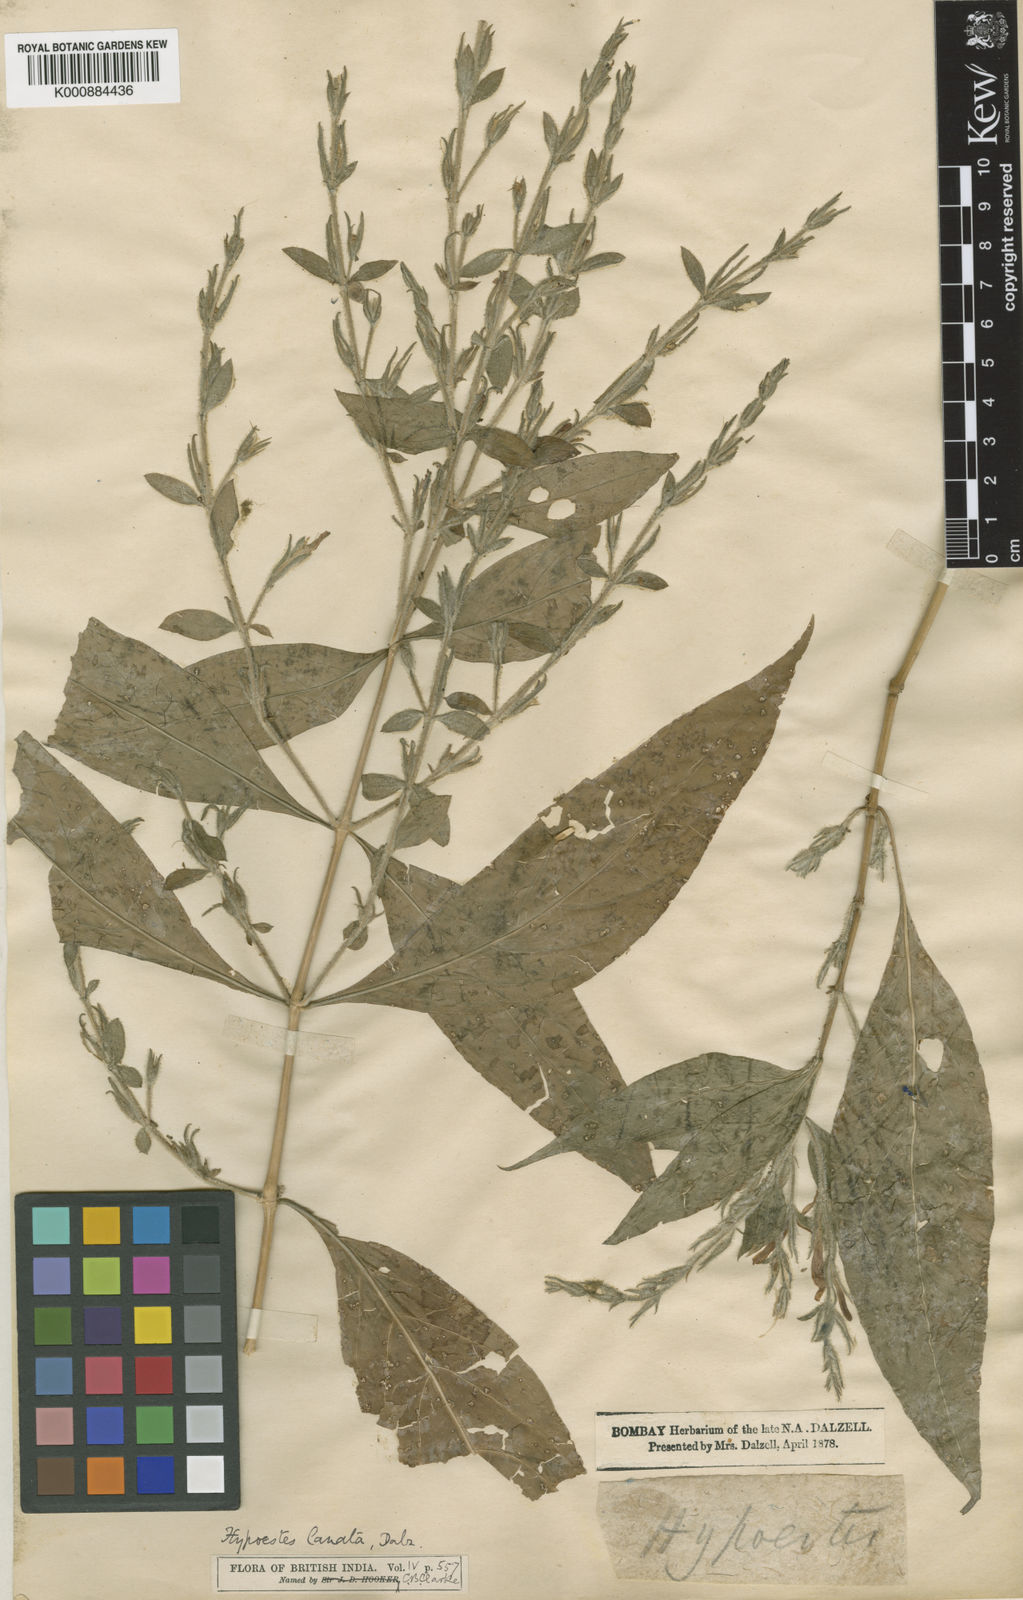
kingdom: Plantae
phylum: Tracheophyta
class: Magnoliopsida
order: Lamiales
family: Acanthaceae
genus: Hypoestes
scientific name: Hypoestes lanata
